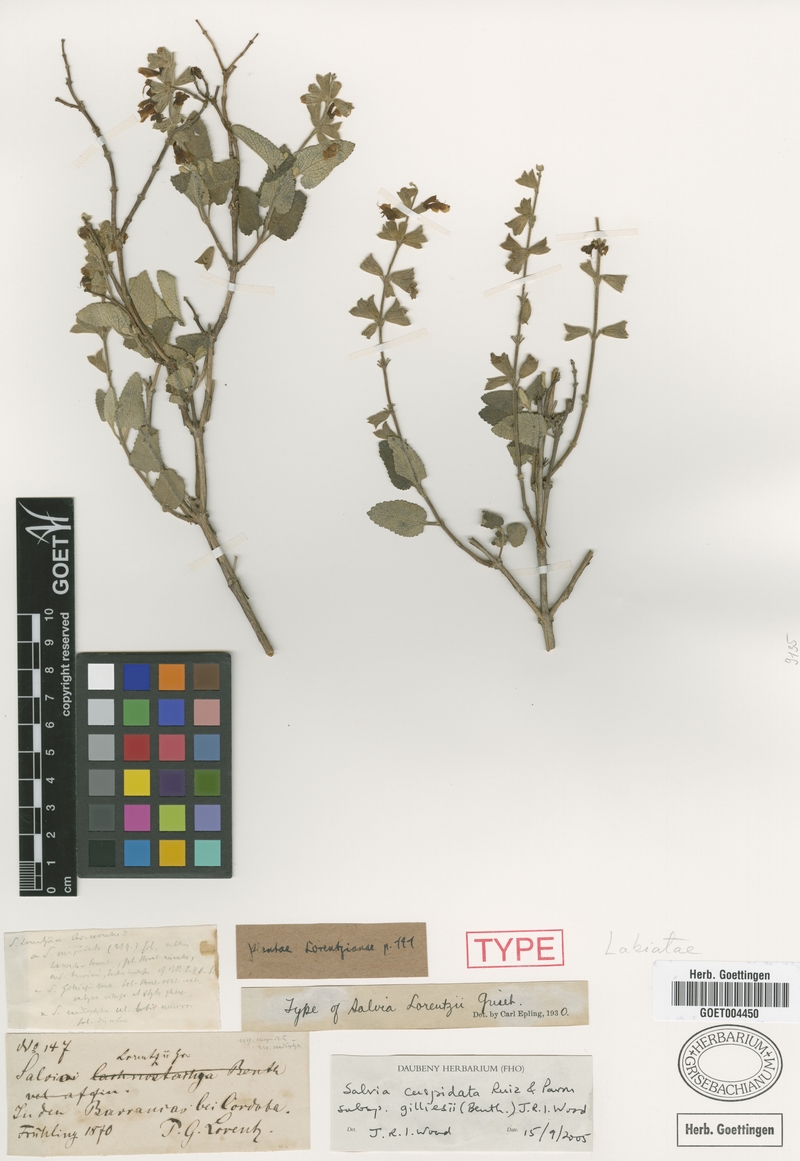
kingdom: Plantae
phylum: Tracheophyta
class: Magnoliopsida
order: Lamiales
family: Lamiaceae
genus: Salvia
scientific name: Salvia cuspidata
